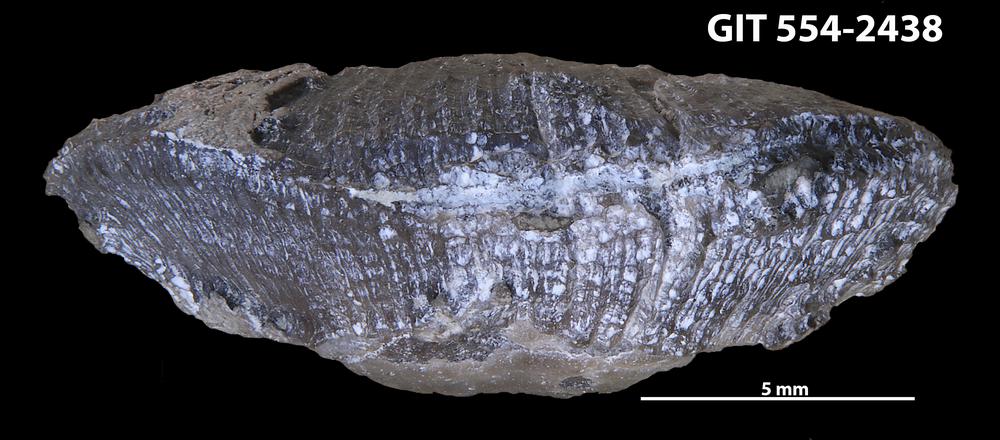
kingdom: Animalia
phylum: Brachiopoda
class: Rhynchonellata
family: Rhipidomellidae
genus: Mendacella
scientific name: Mendacella Rhipidomelloides phaseola
